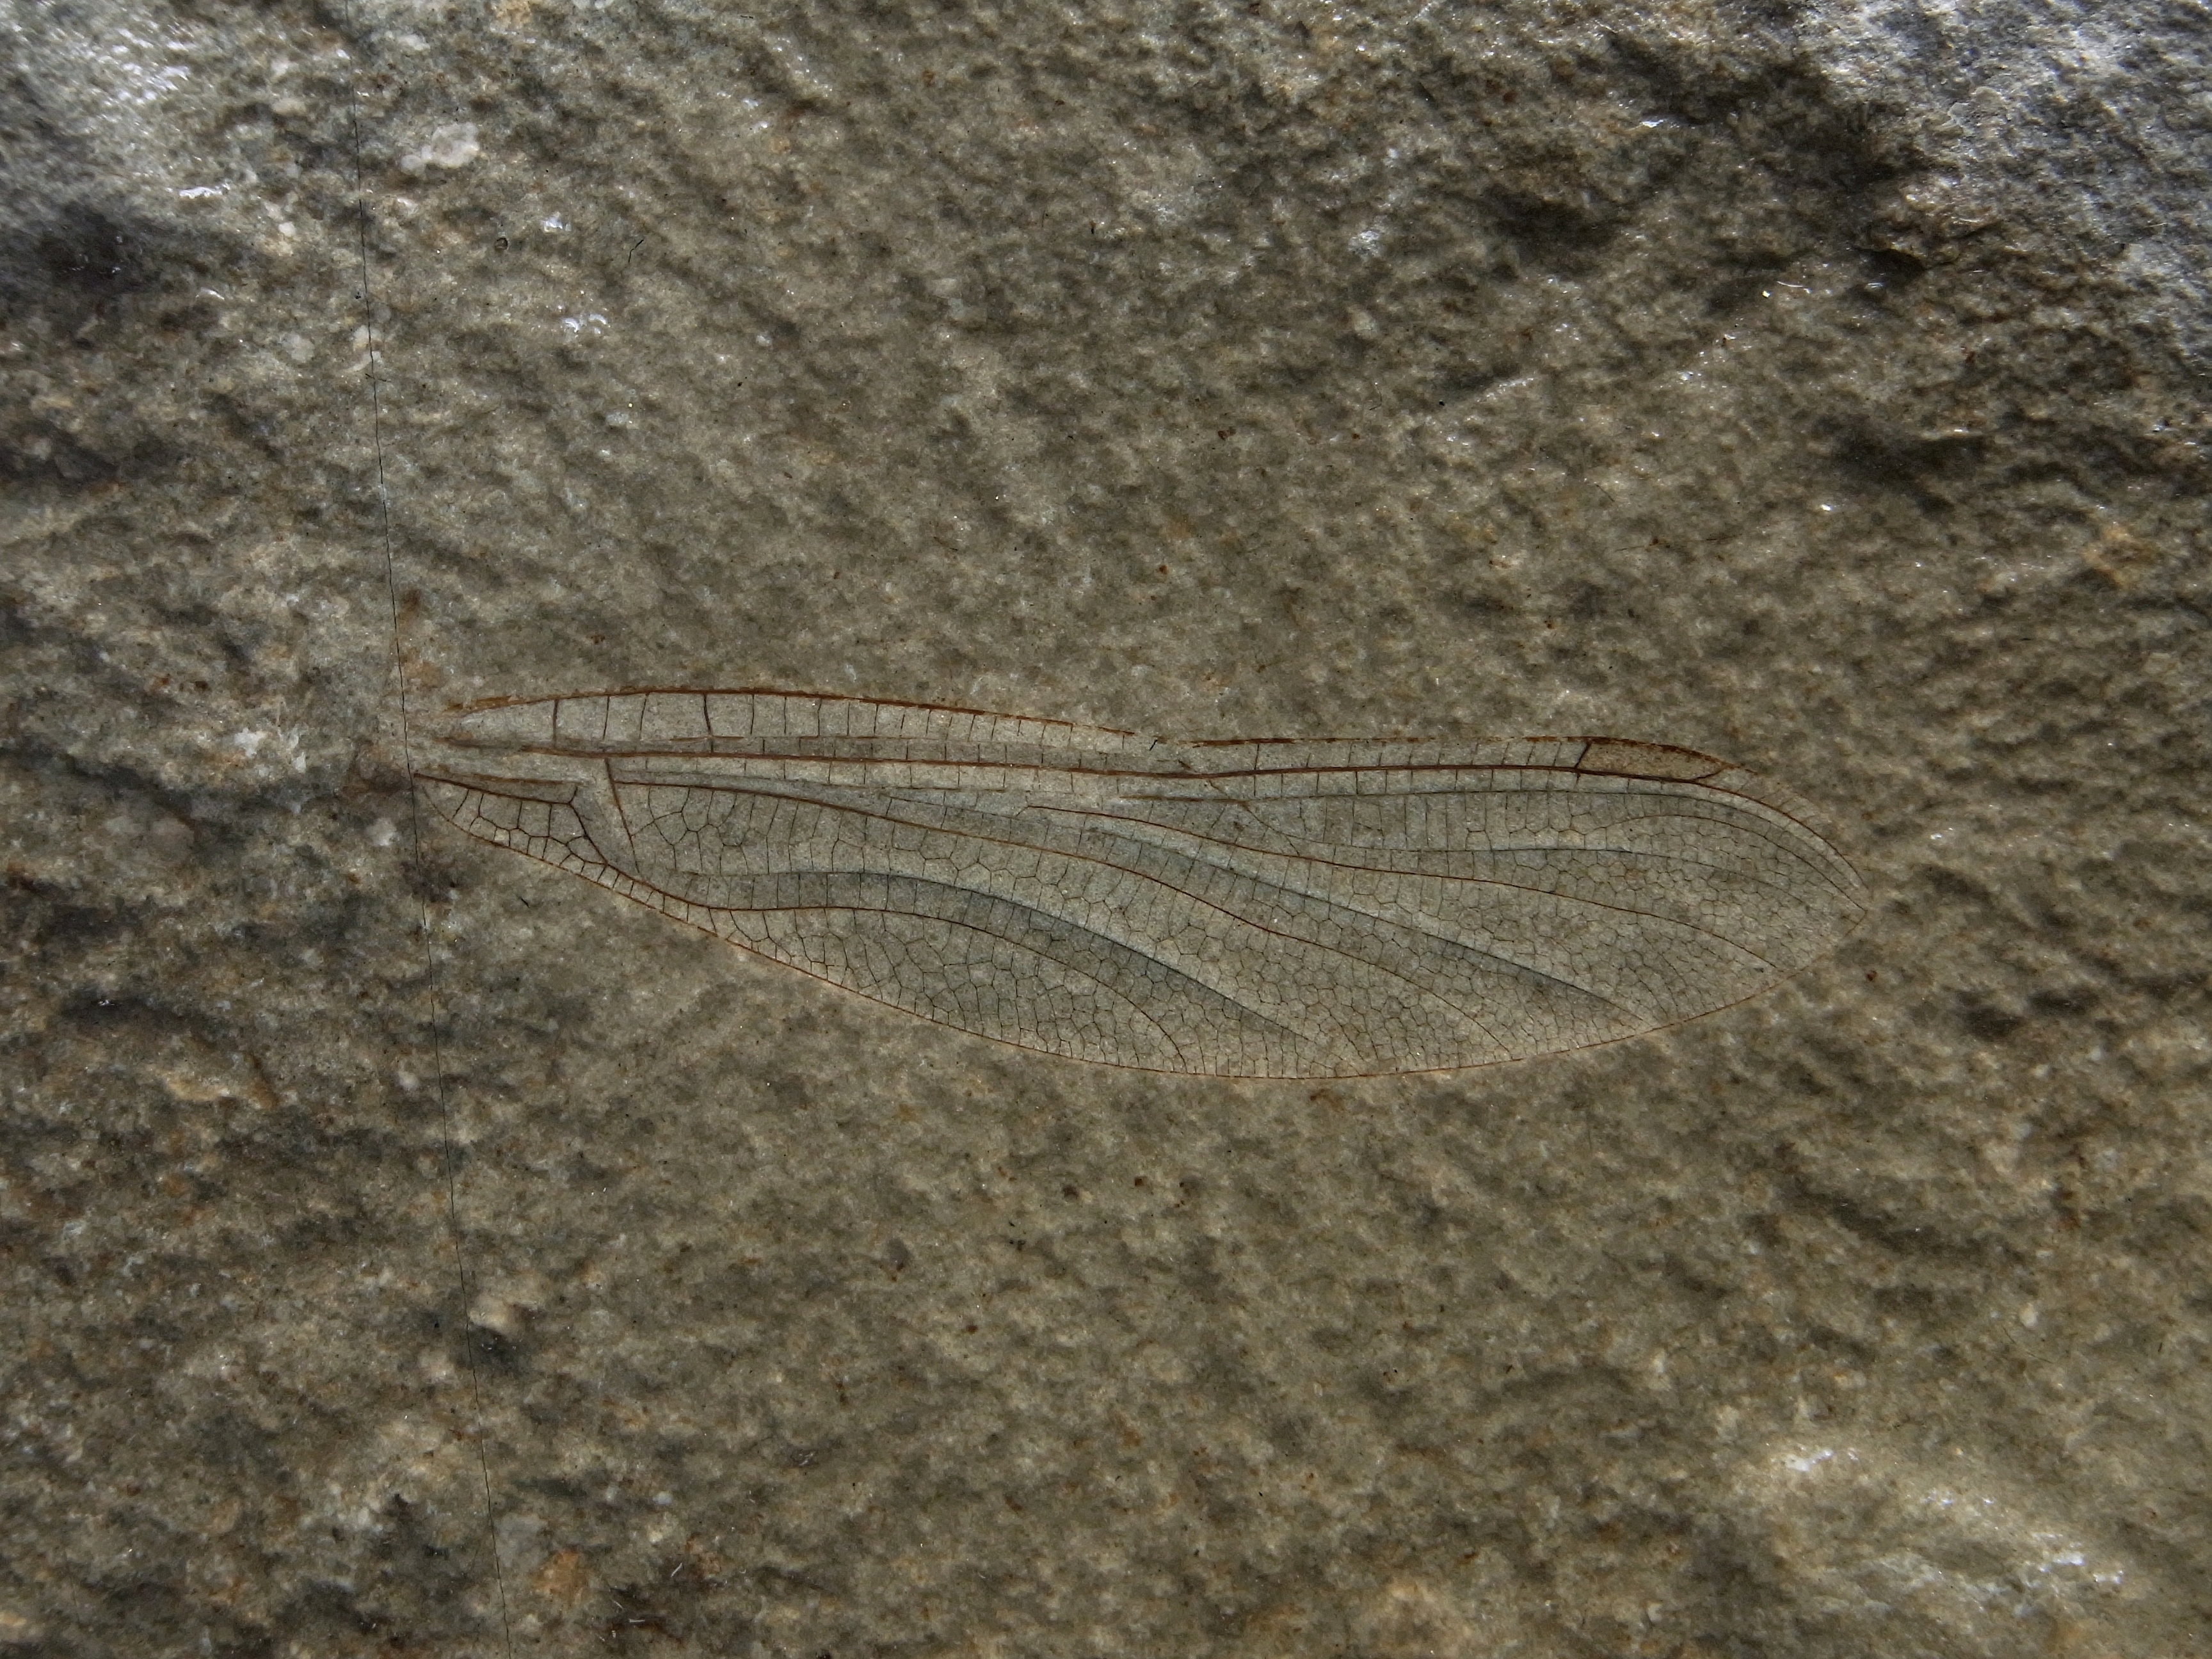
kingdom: Animalia
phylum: Arthropoda
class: Insecta
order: Odonata
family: Heterophlebiidae
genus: Heterophlebia
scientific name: Heterophlebia
